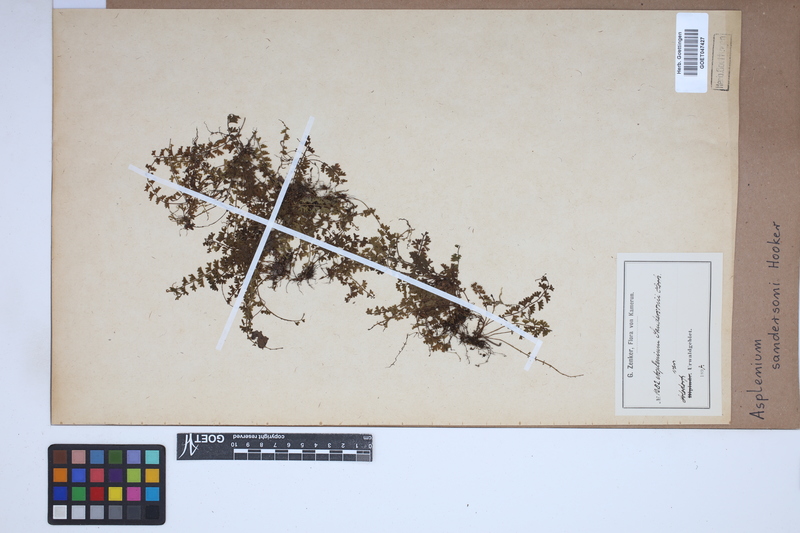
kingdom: Plantae
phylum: Tracheophyta
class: Polypodiopsida
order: Polypodiales
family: Aspleniaceae
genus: Asplenium
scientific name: Asplenium sandersonii
